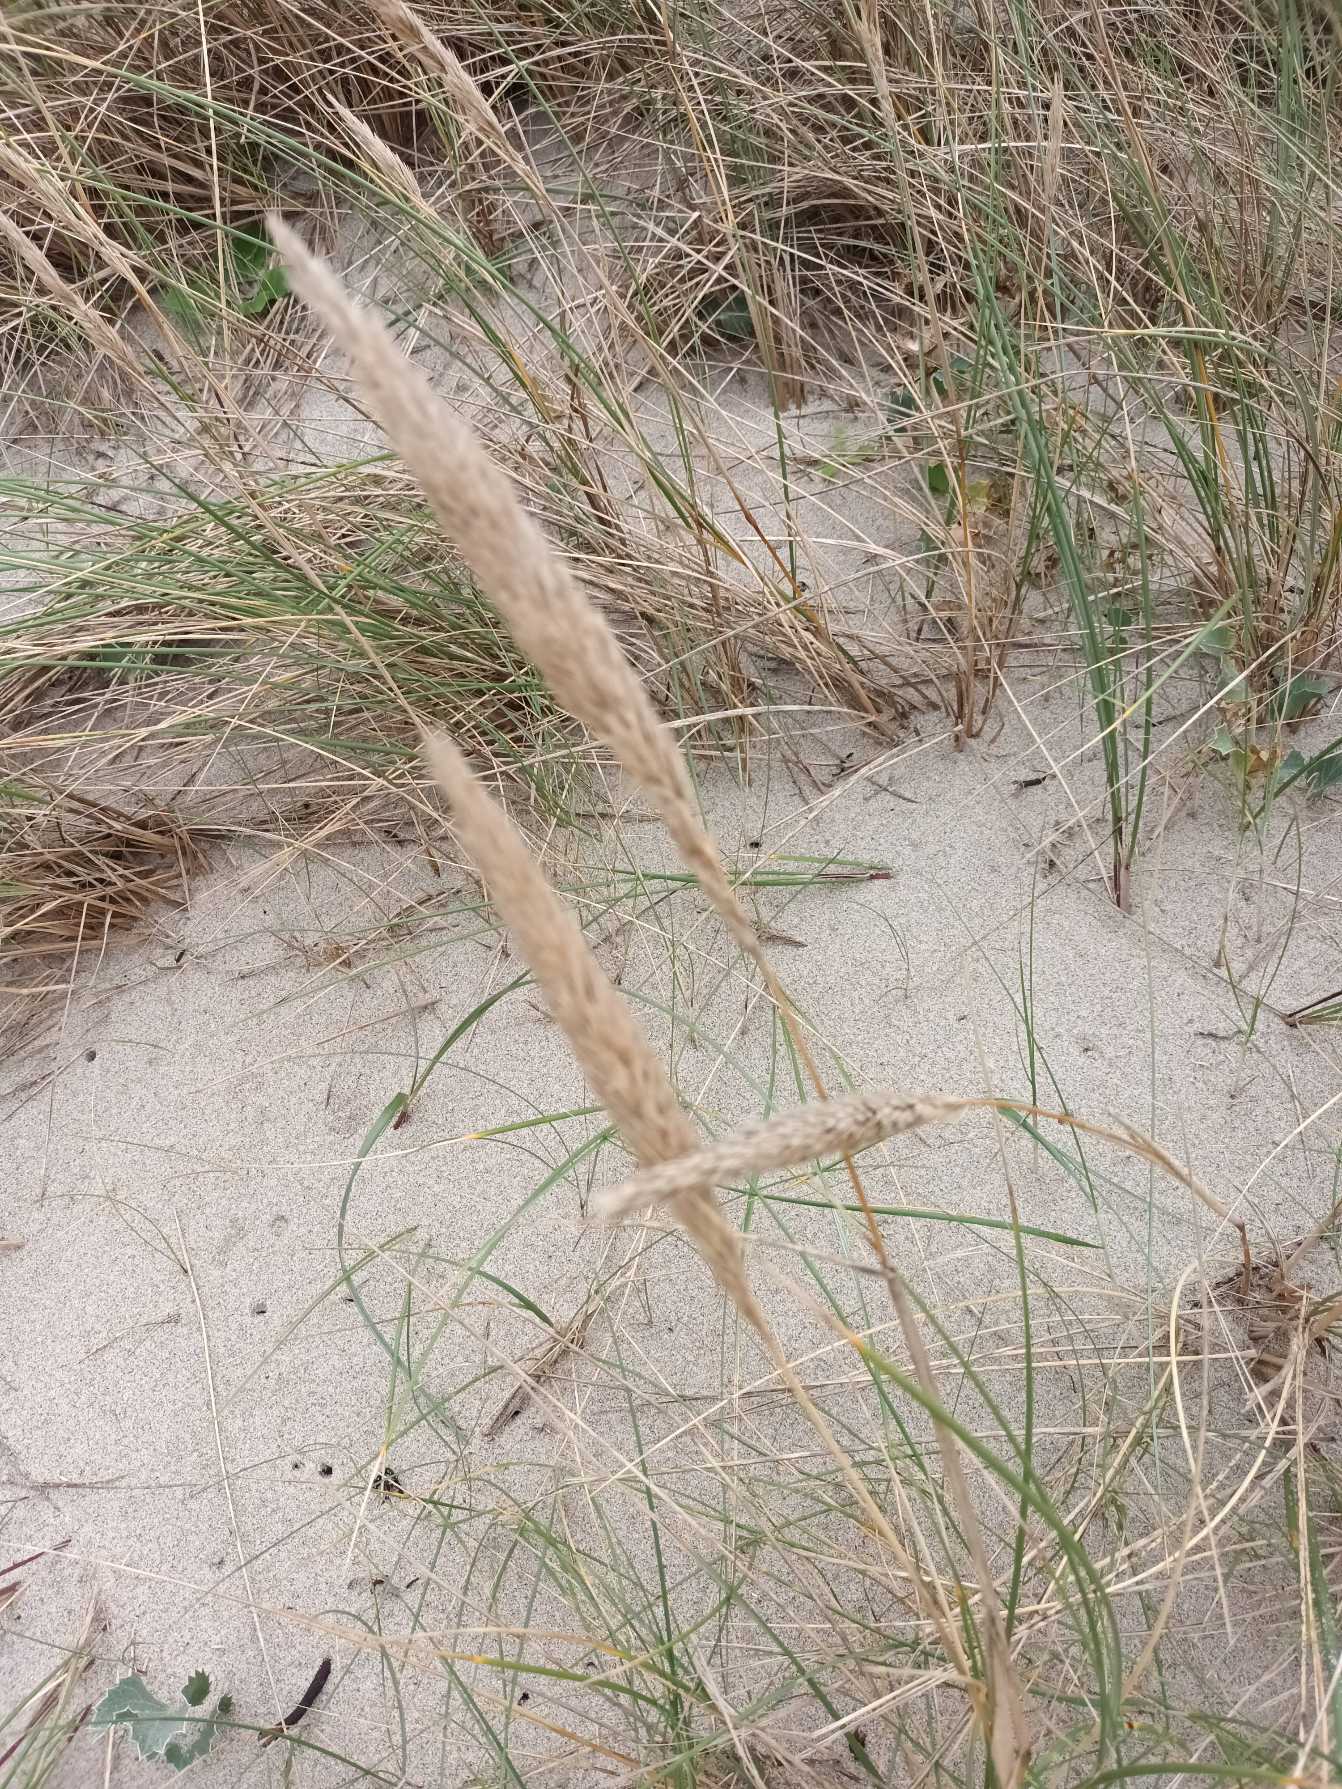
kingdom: Plantae
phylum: Tracheophyta
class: Liliopsida
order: Poales
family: Poaceae
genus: Calamagrostis
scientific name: Calamagrostis arenaria
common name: Sand-hjælme
